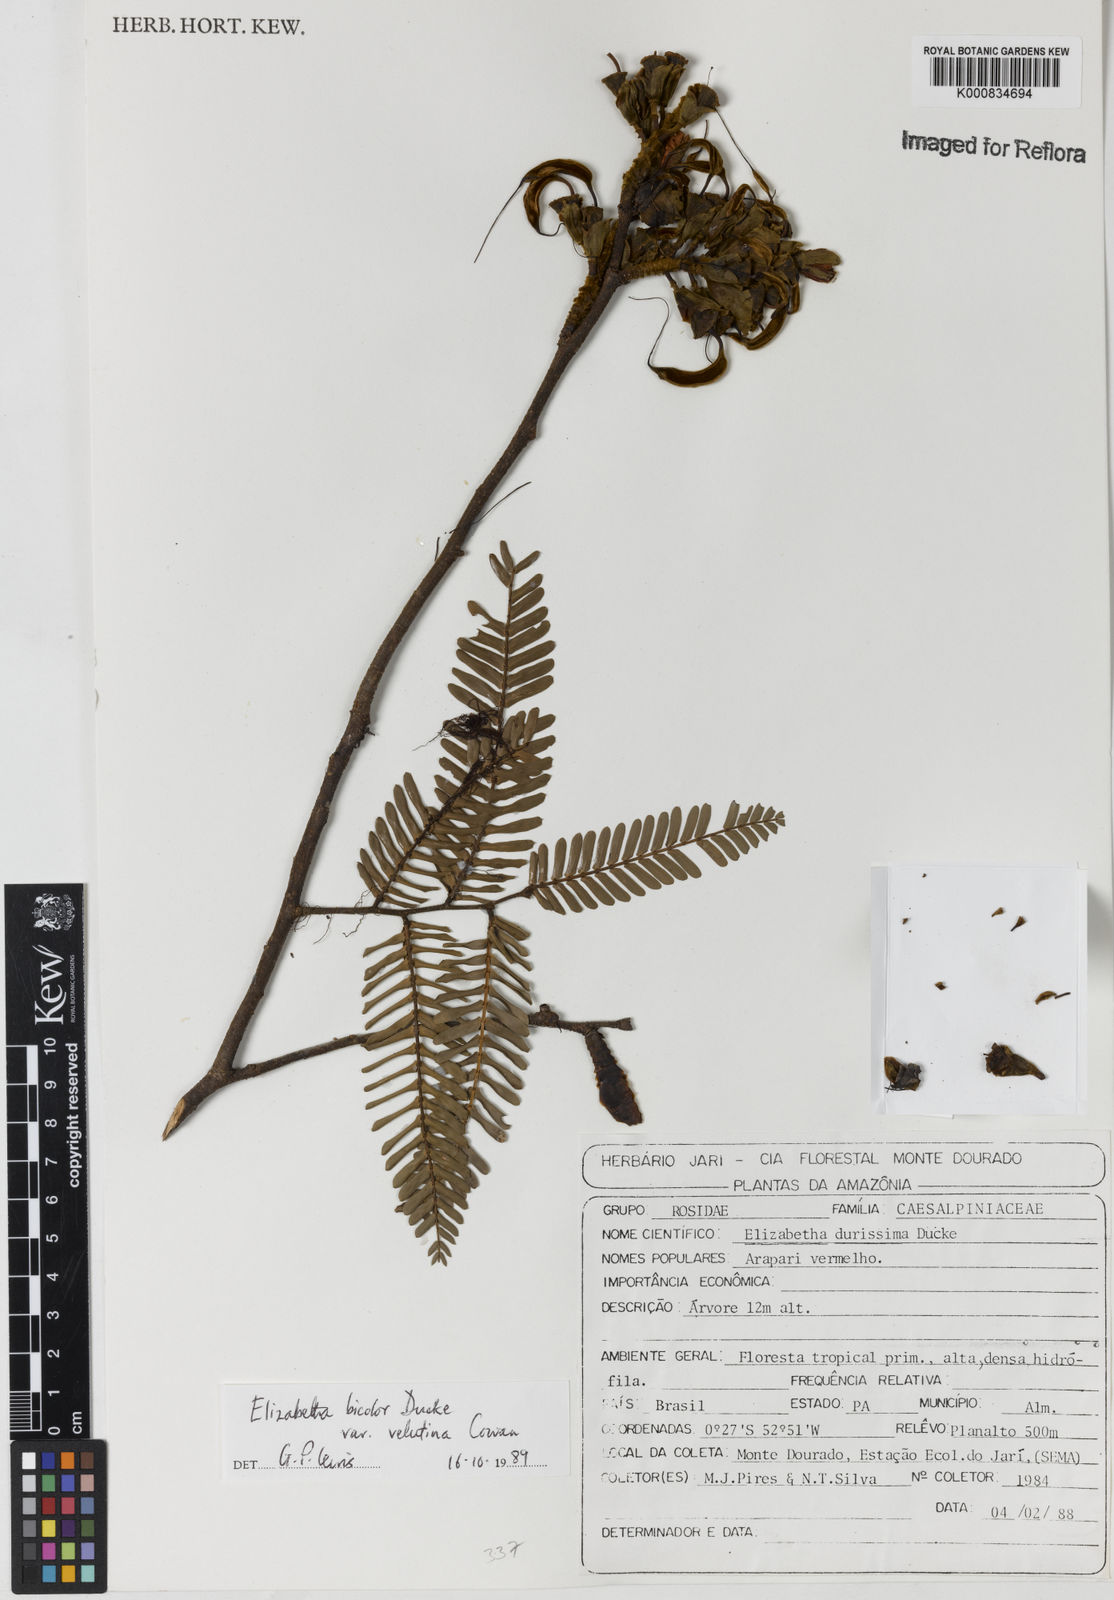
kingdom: Plantae
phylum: Tracheophyta
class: Magnoliopsida
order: Fabales
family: Fabaceae
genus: Paloue
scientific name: Paloue bicolor
